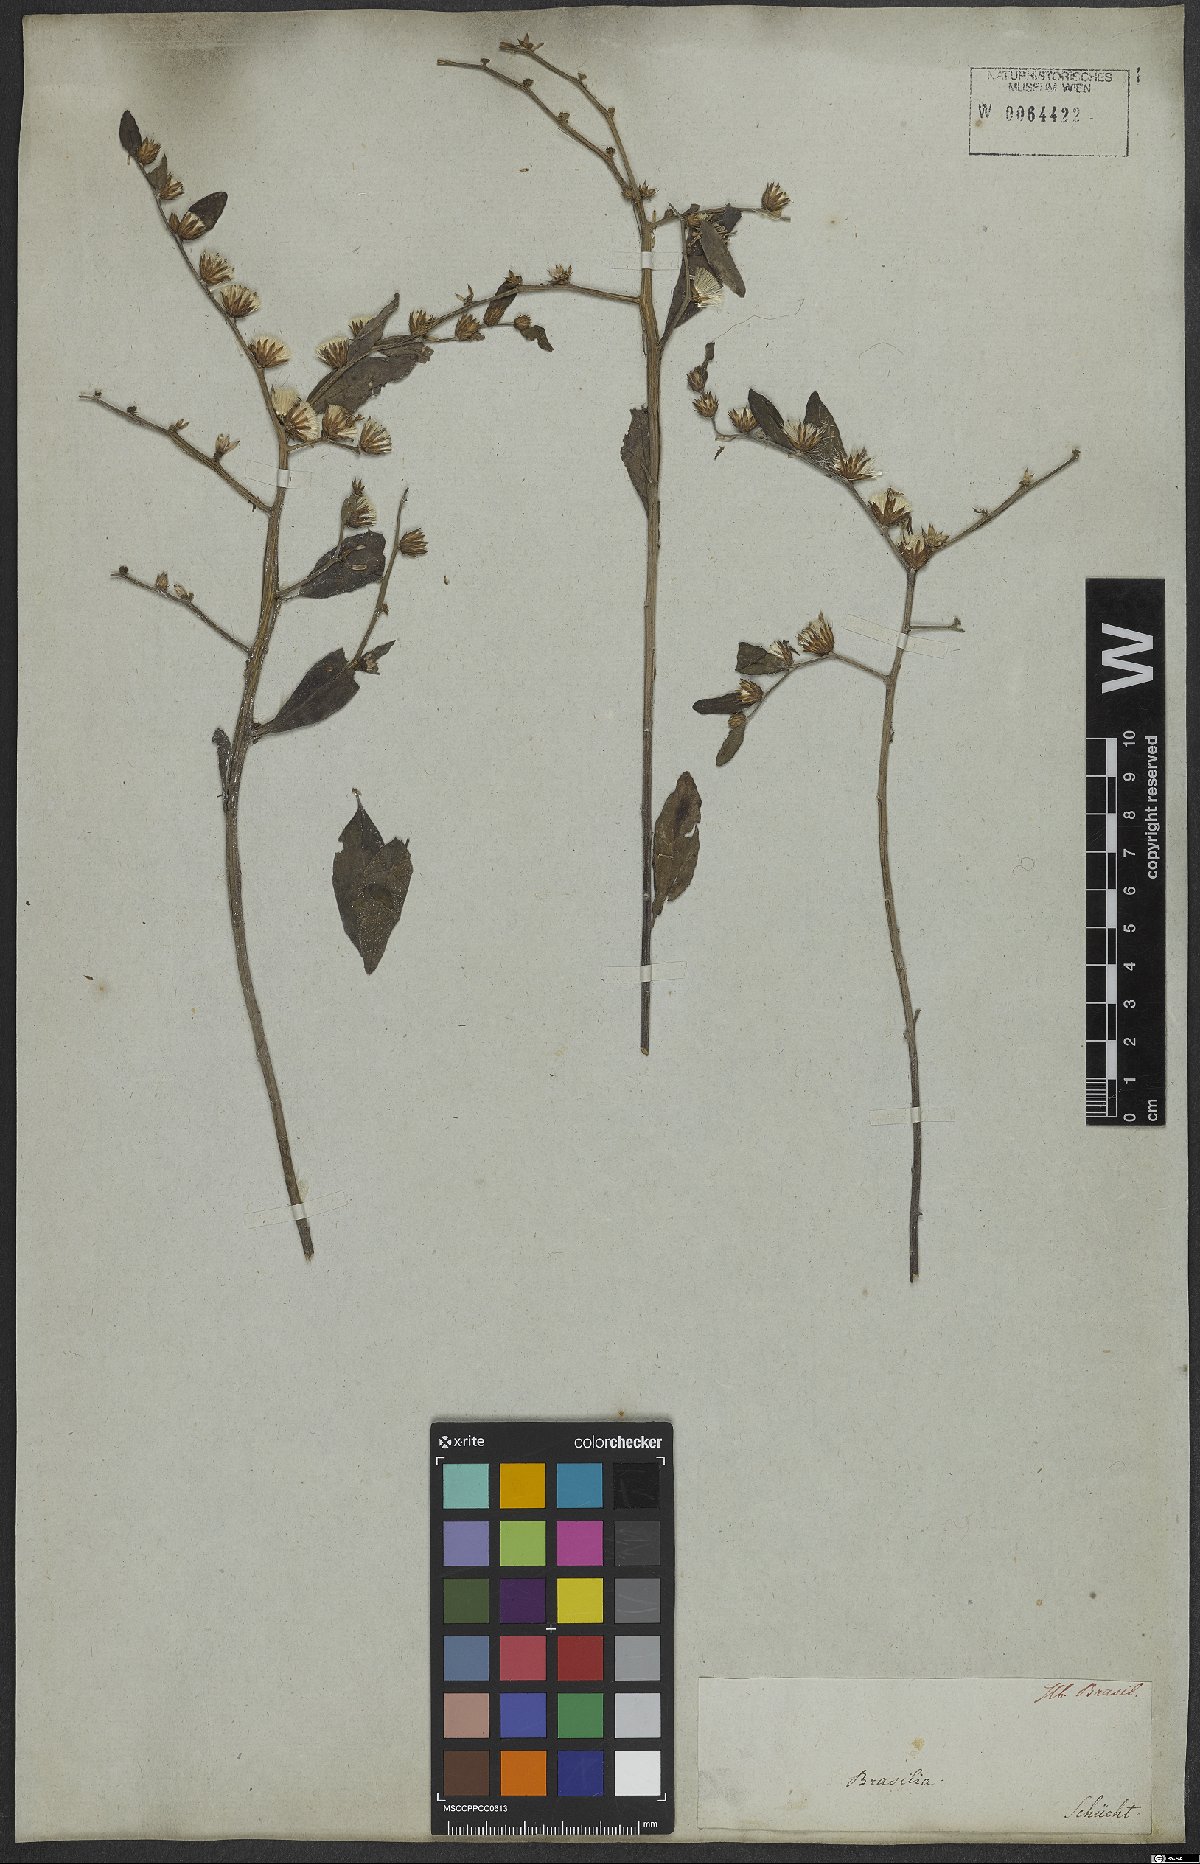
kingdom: Plantae
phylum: Tracheophyta
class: Magnoliopsida
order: Asterales
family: Asteraceae
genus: Lepidaploa
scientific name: Lepidaploa gracilis
